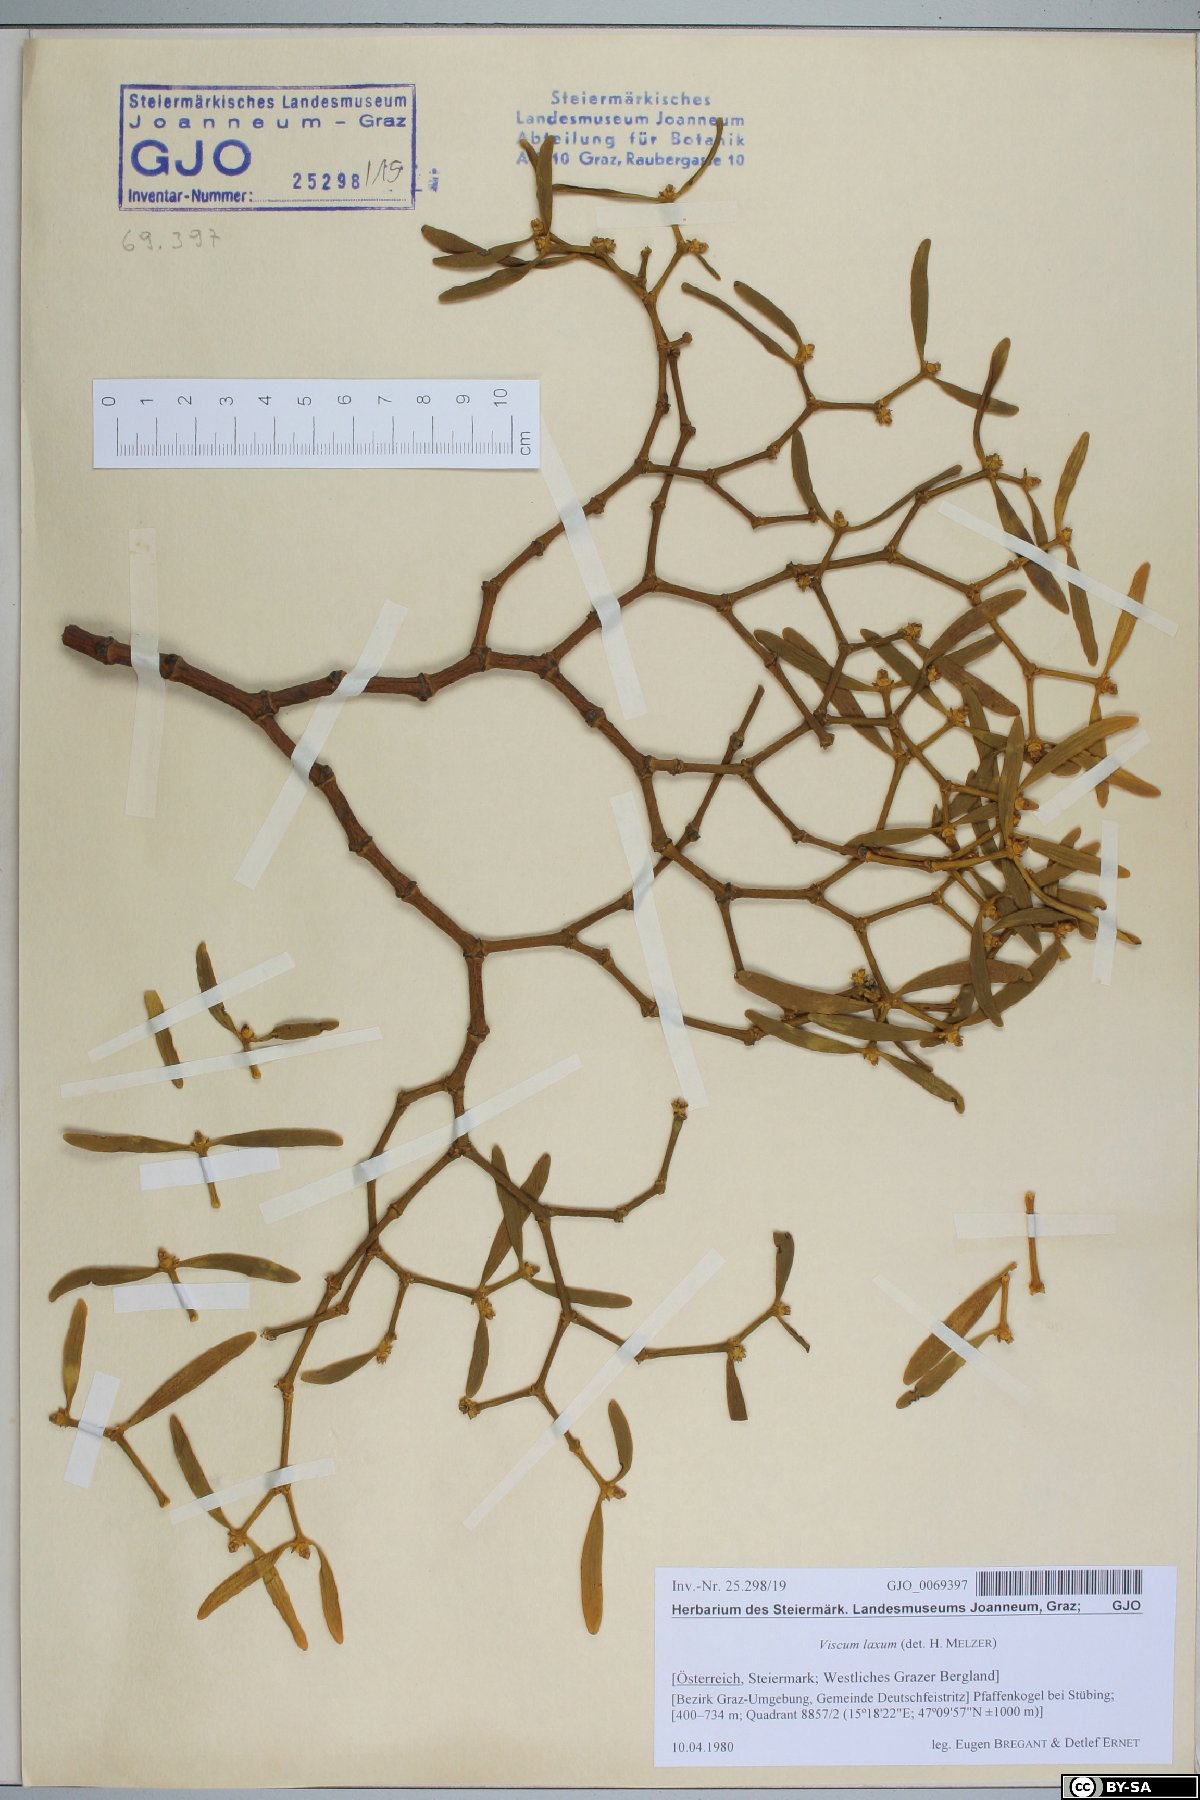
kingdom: Plantae
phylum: Tracheophyta
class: Magnoliopsida
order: Santalales
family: Viscaceae
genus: Viscum
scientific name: Viscum laxum
